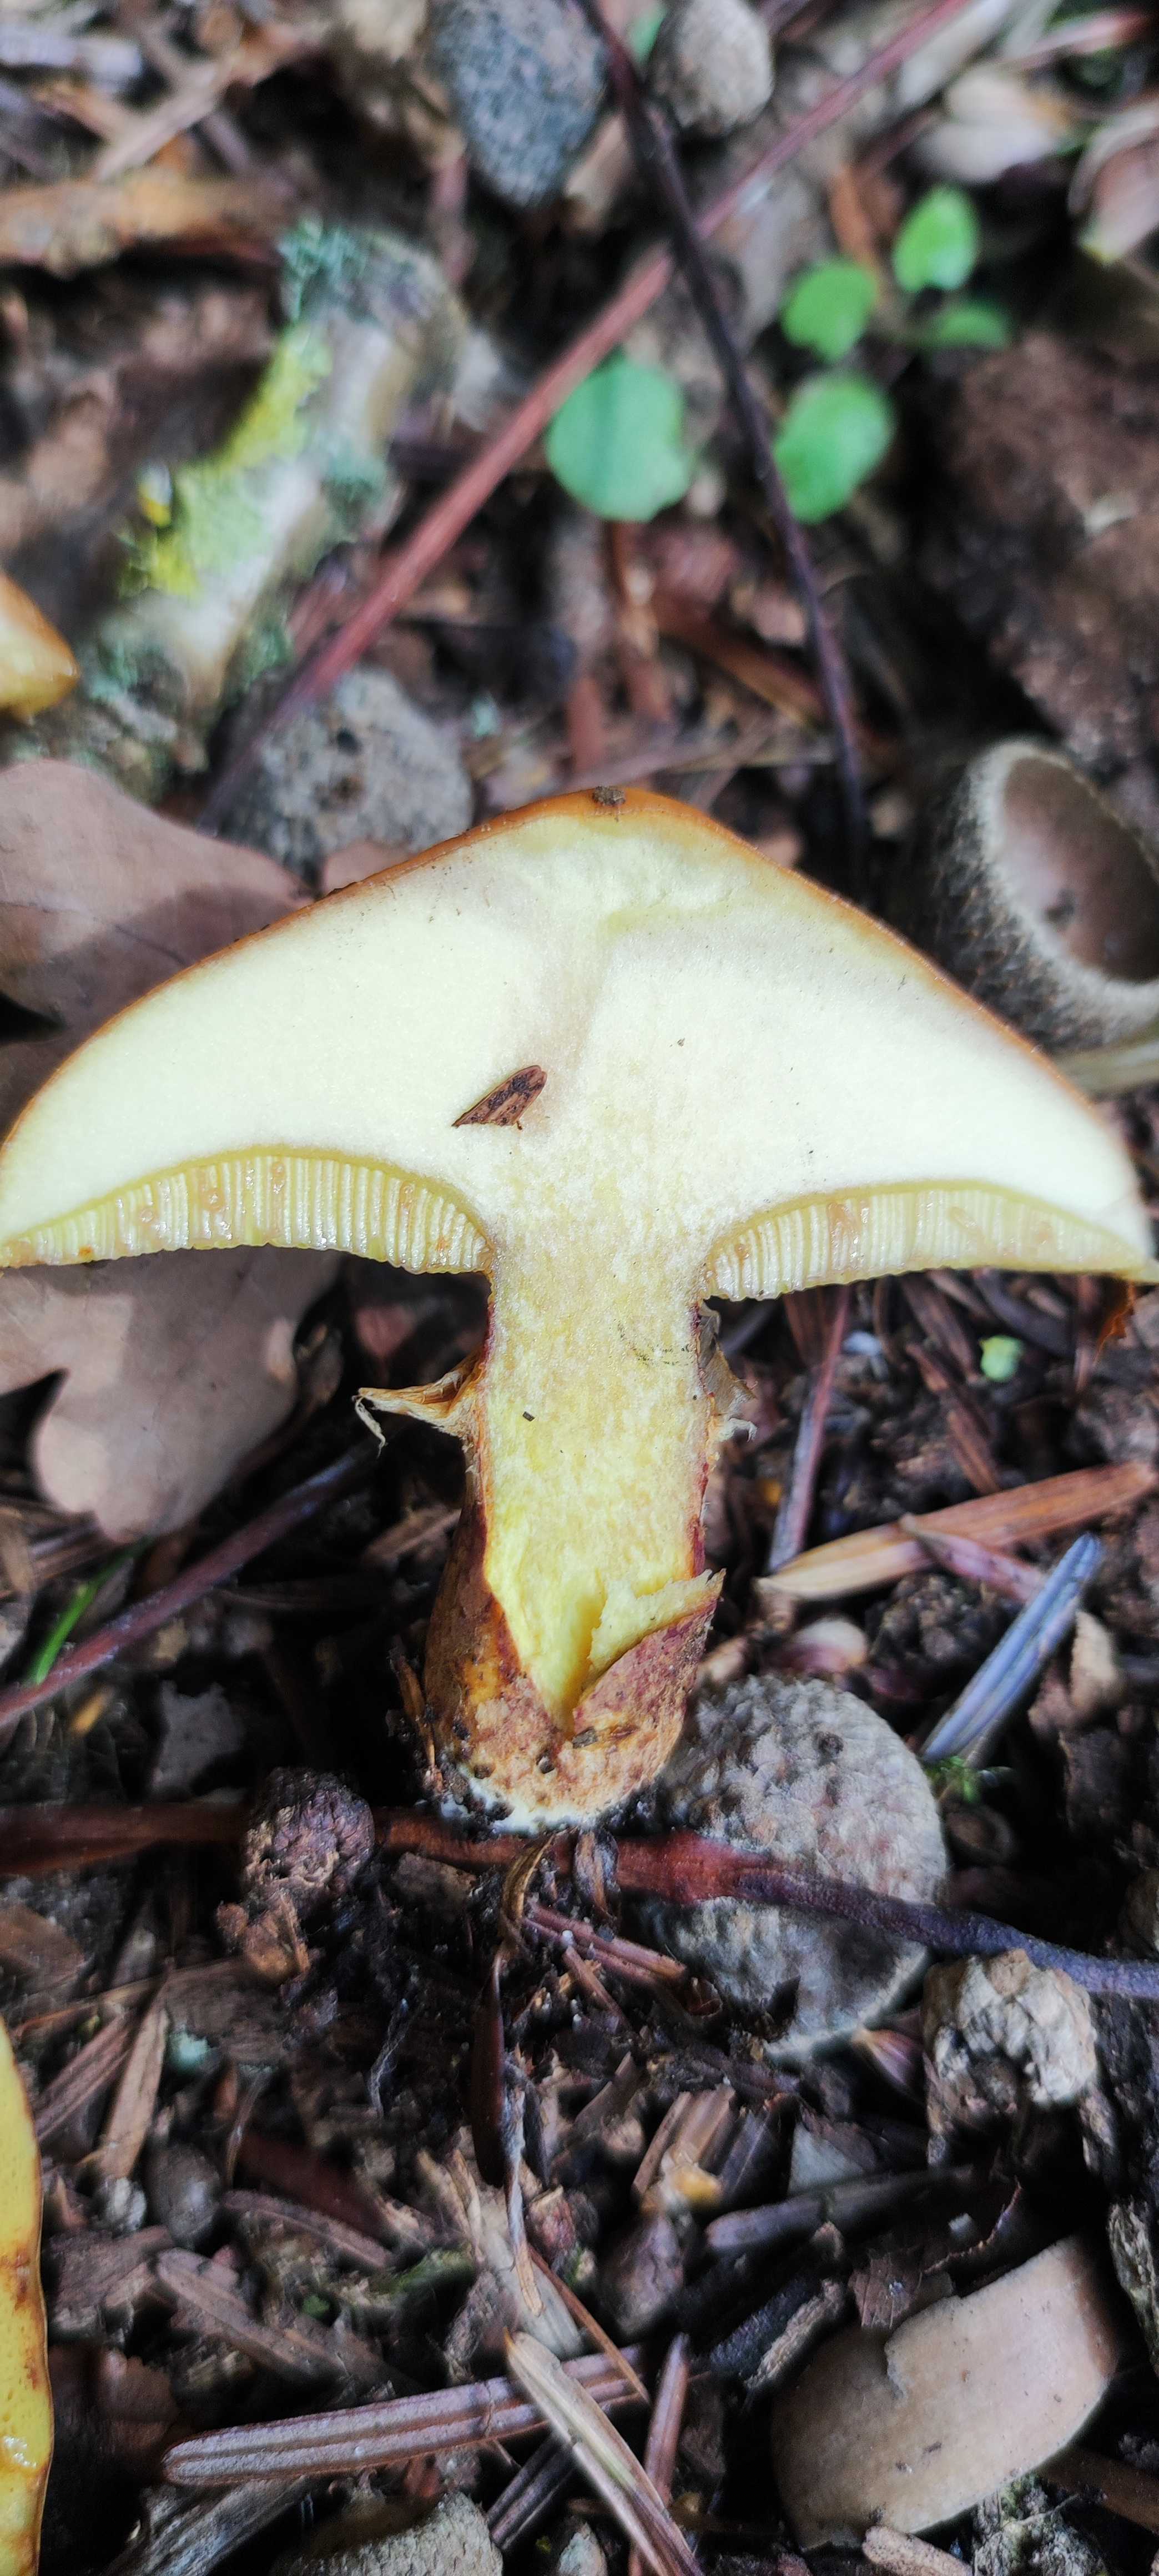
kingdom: Fungi
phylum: Basidiomycota
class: Agaricomycetes
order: Boletales
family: Suillaceae
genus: Suillus
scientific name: Suillus grevillei
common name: lærke-slimrørhat
